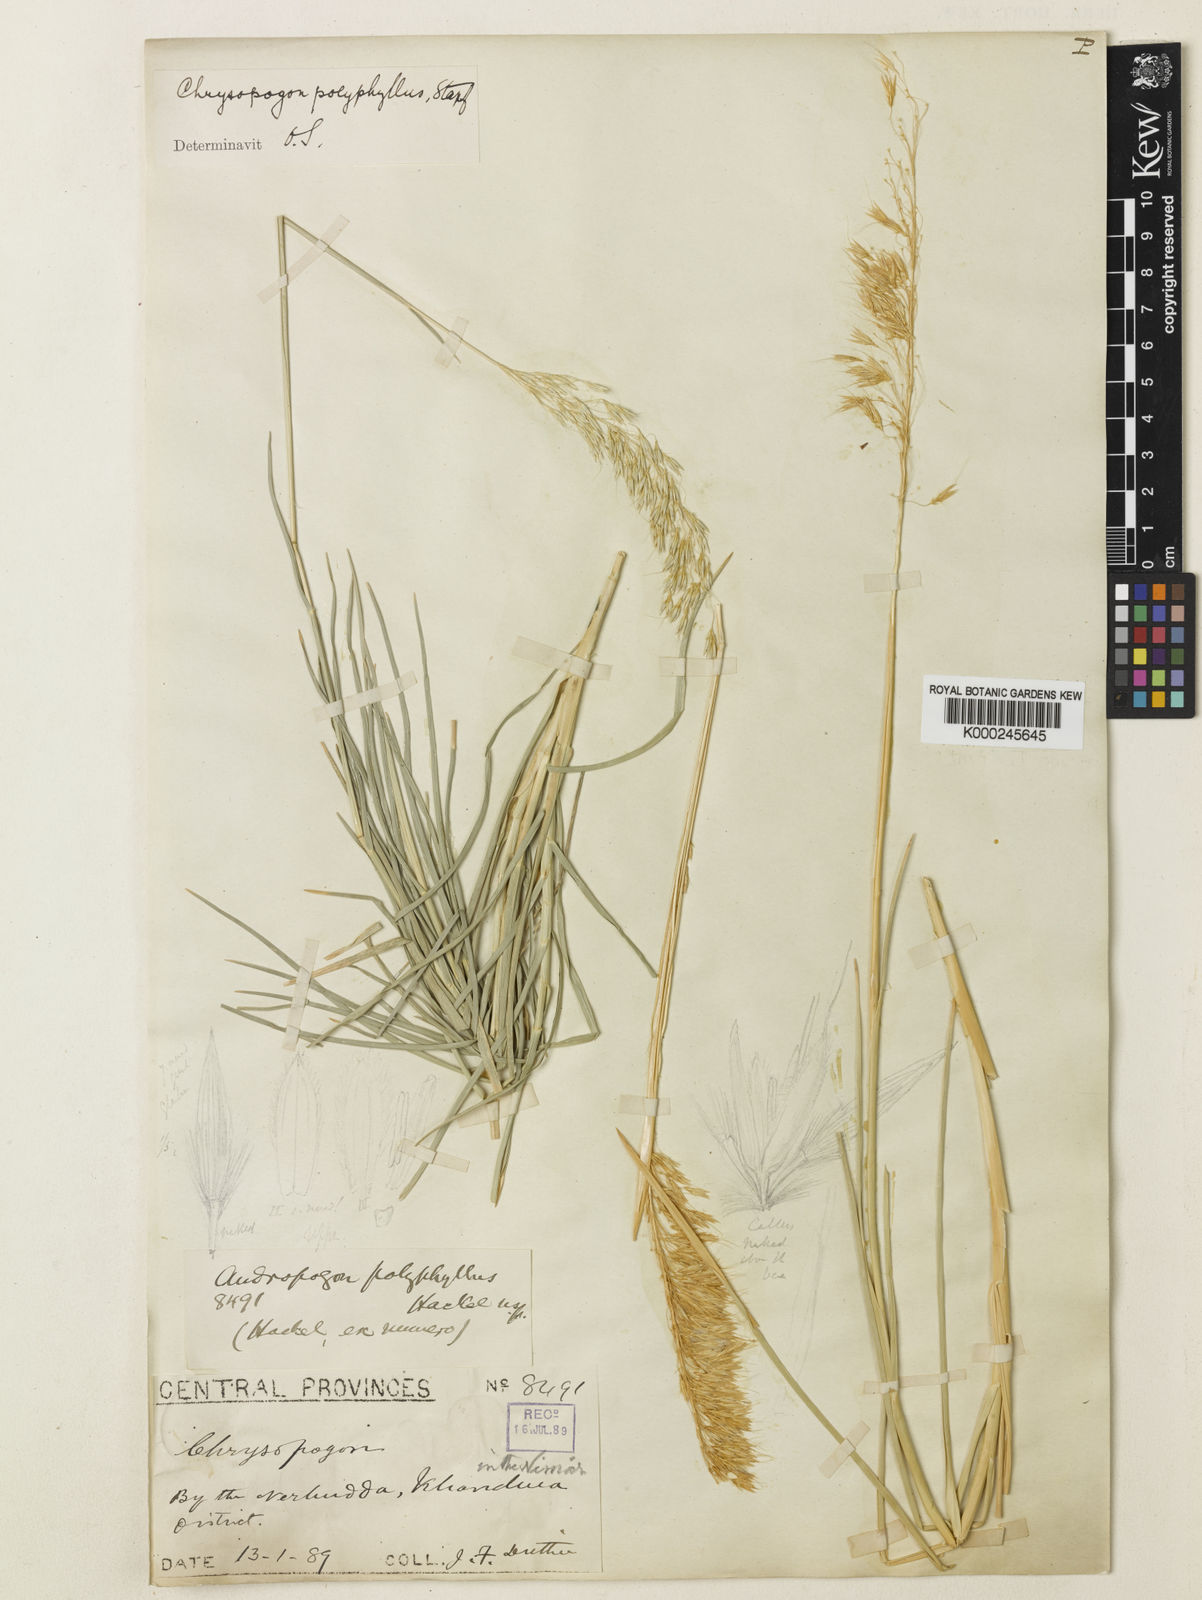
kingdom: Plantae
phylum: Tracheophyta
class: Liliopsida
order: Poales
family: Poaceae
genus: Chrysopogon
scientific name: Chrysopogon polyphyllus
